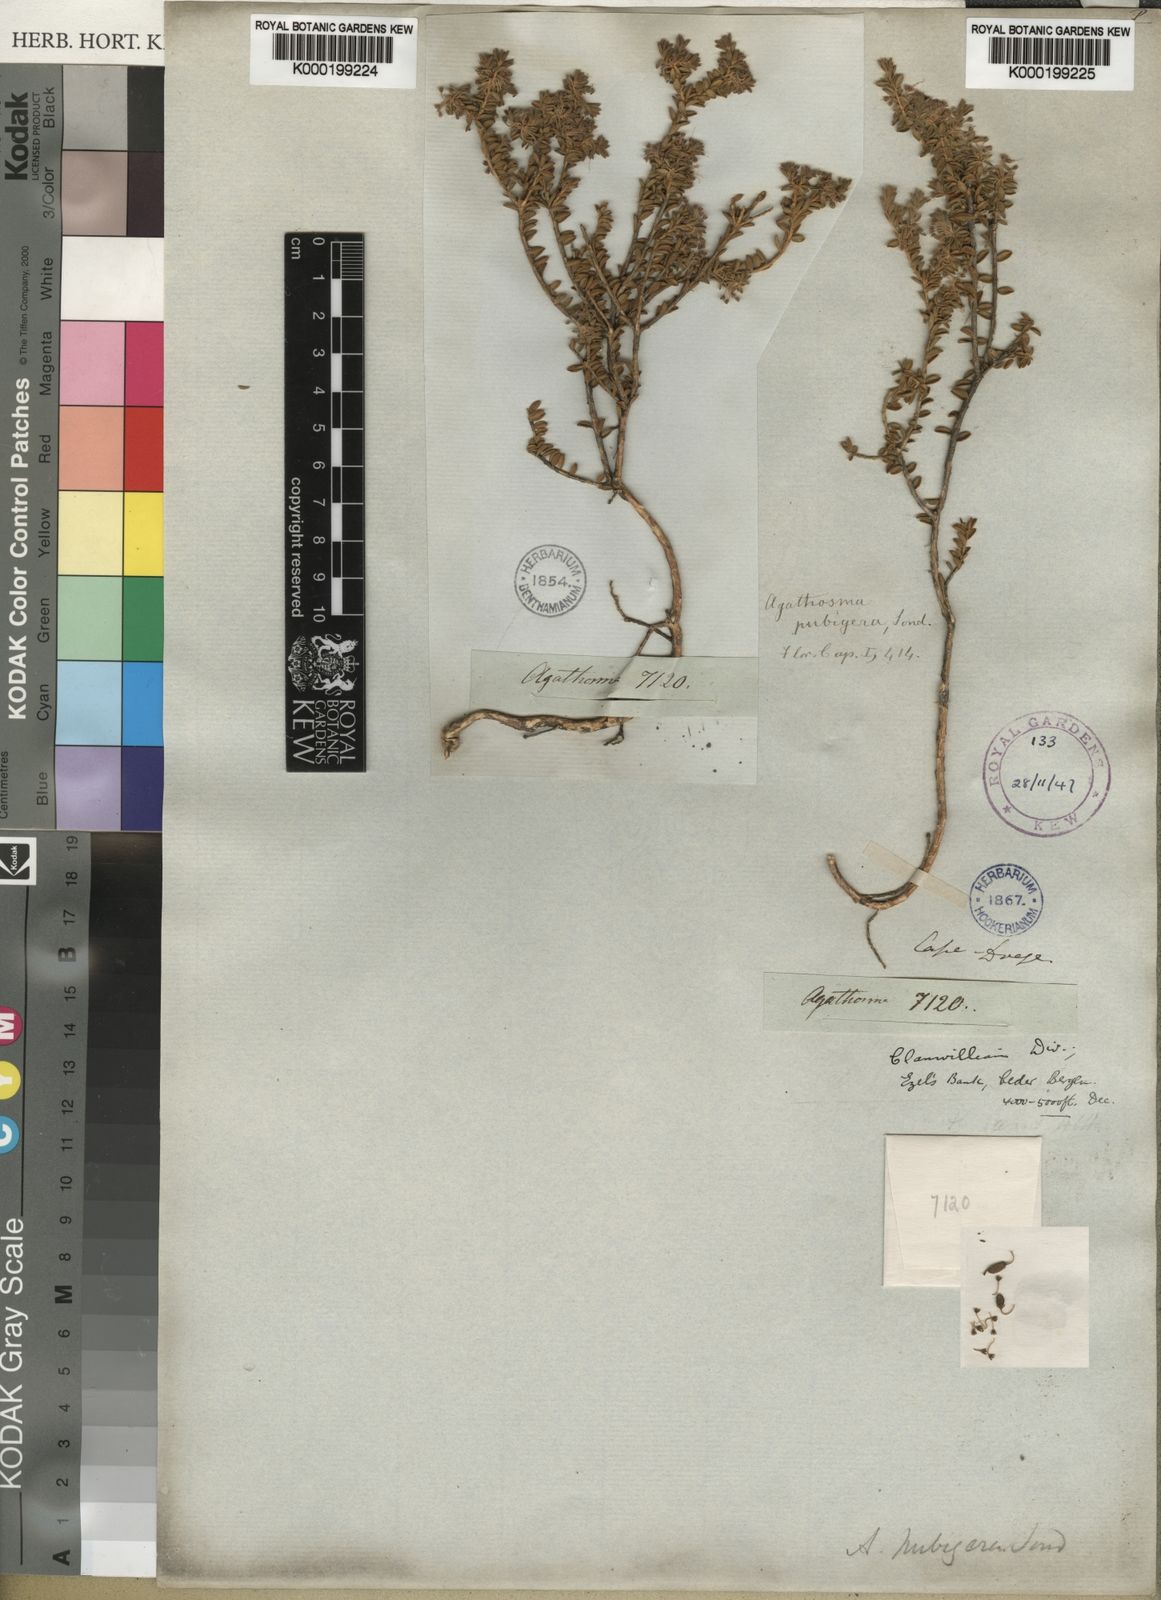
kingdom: Plantae
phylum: Tracheophyta
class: Magnoliopsida
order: Sapindales
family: Rutaceae
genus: Agathosma
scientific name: Agathosma pubigera
